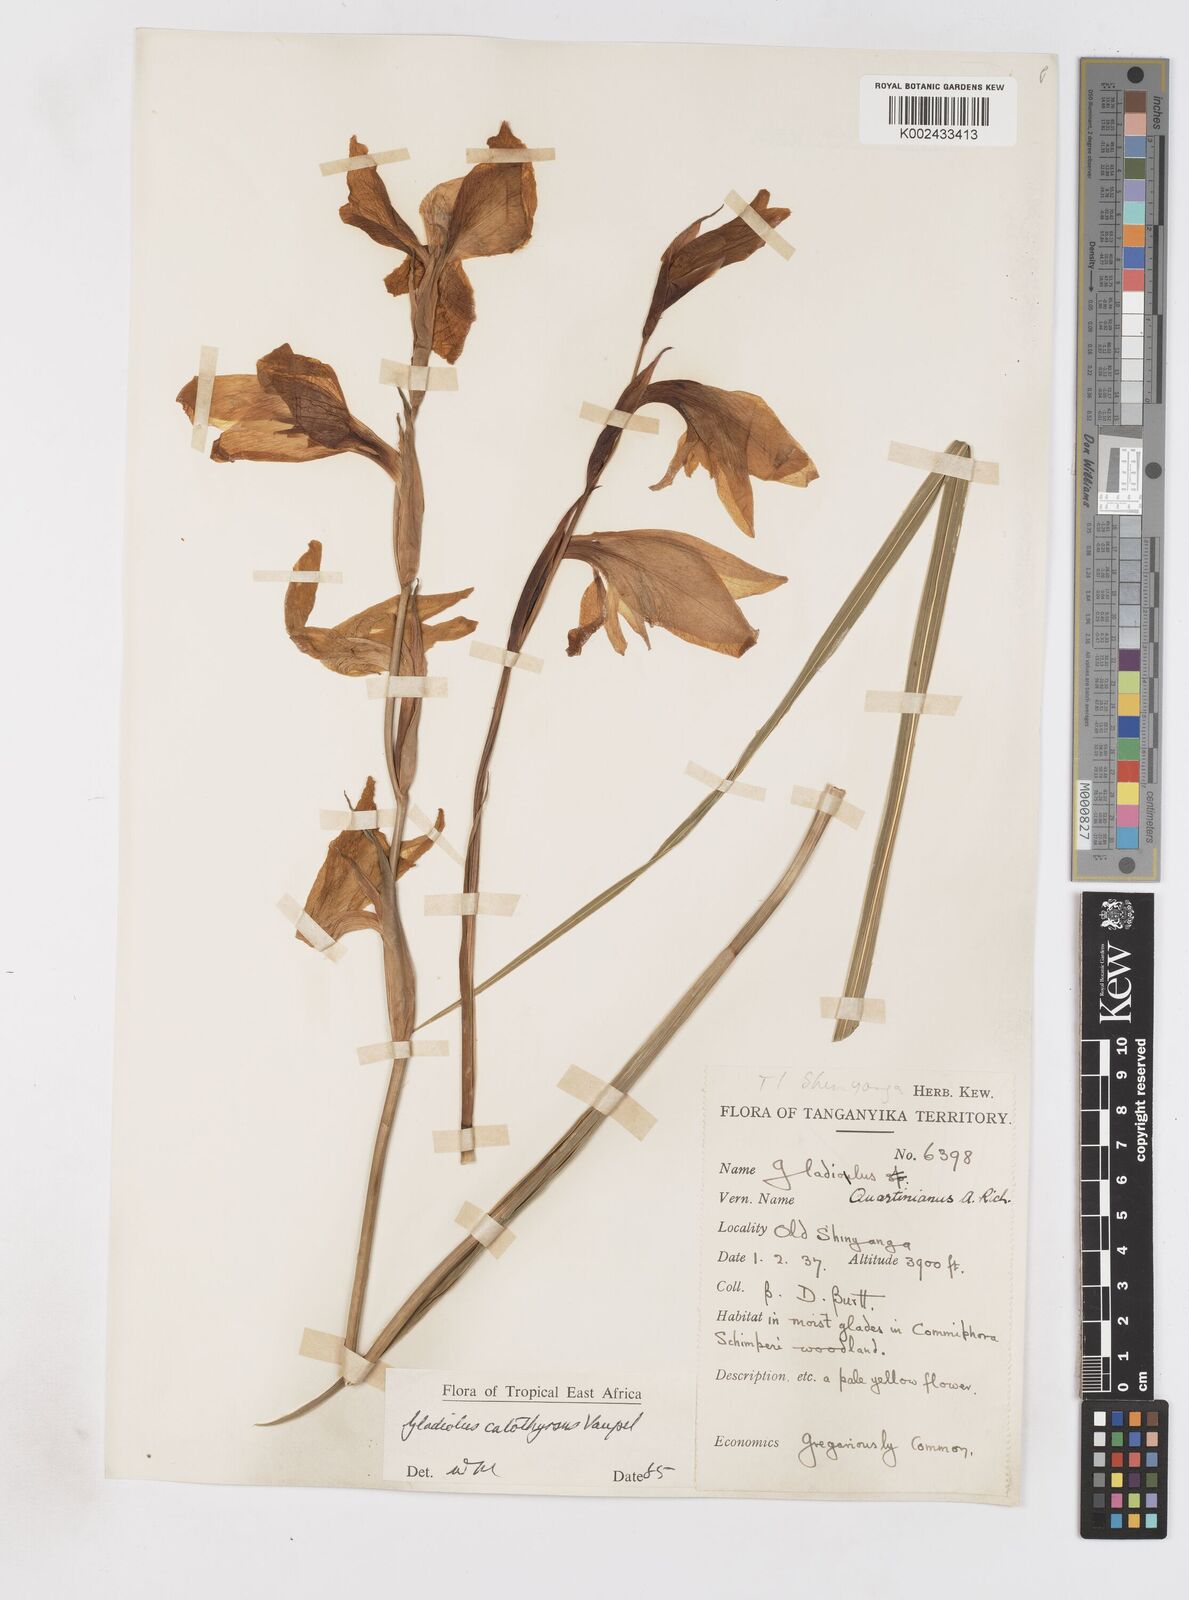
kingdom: Plantae
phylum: Tracheophyta
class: Liliopsida
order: Asparagales
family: Iridaceae
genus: Gladiolus
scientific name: Gladiolus dalenii
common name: Cornflag
